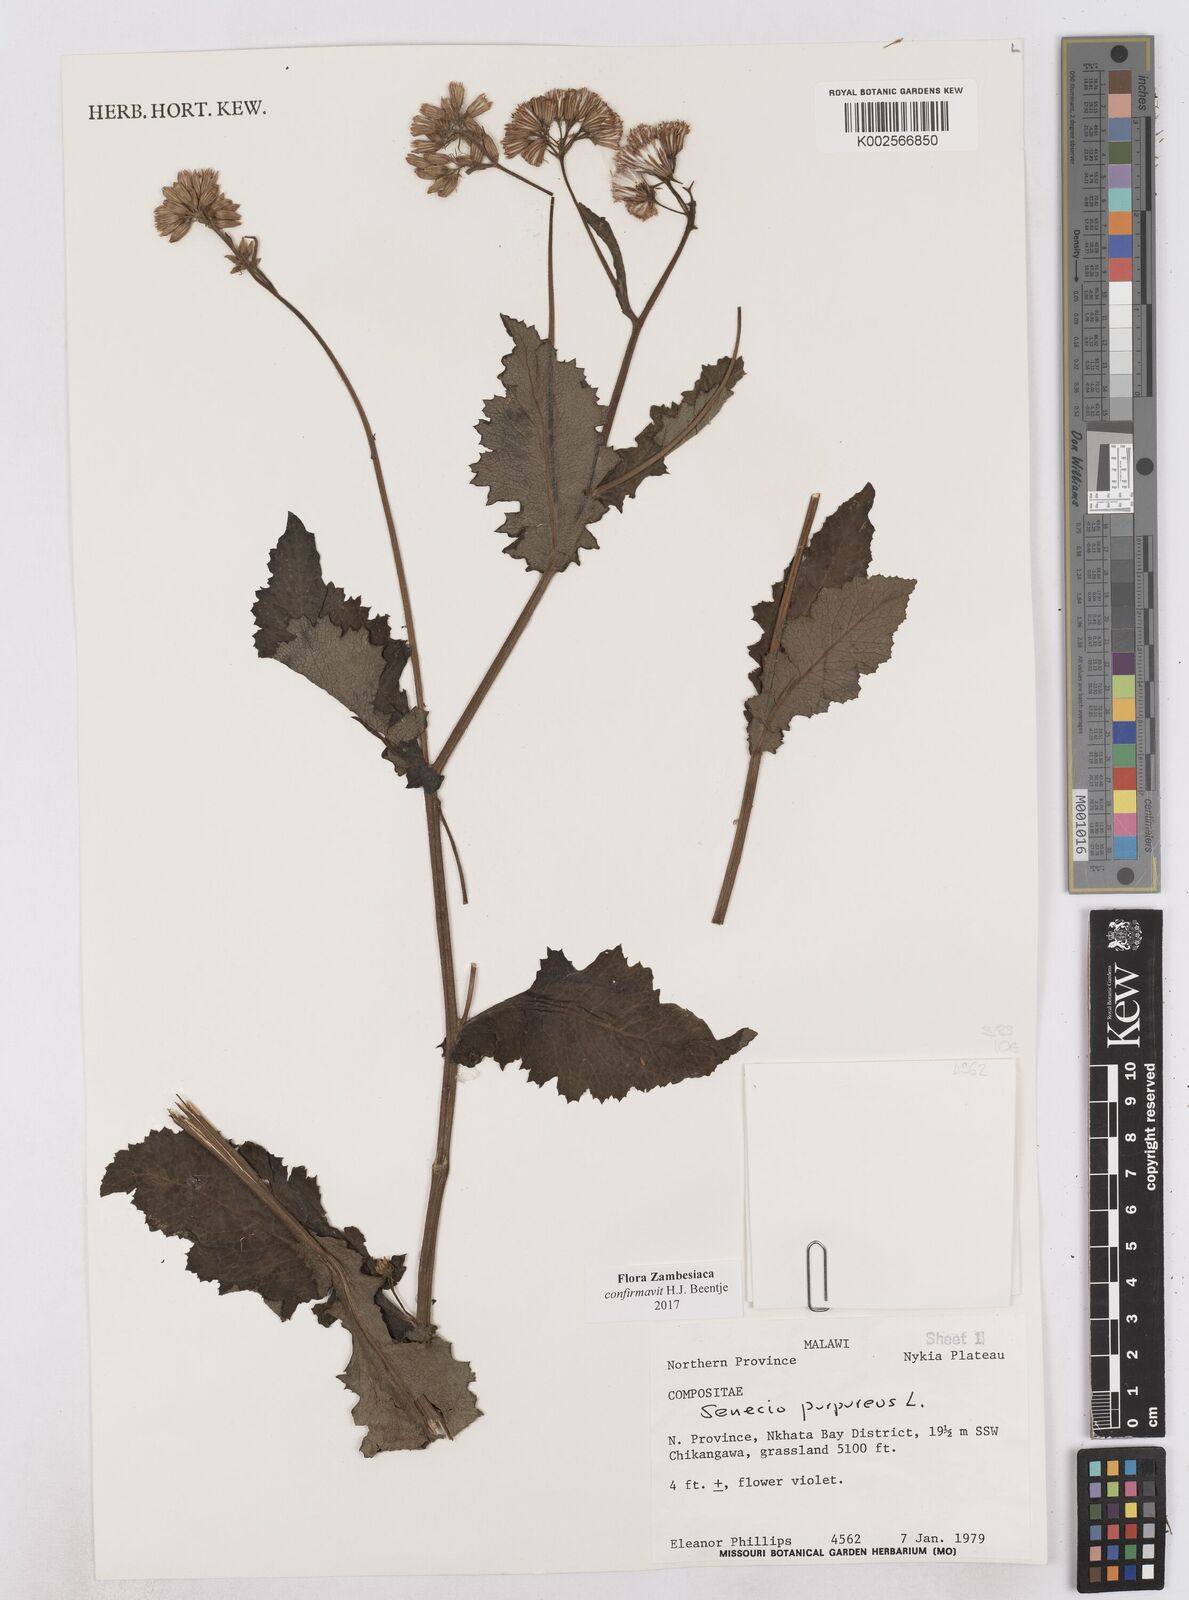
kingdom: Plantae
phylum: Tracheophyta
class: Magnoliopsida
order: Asterales
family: Asteraceae
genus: Senecio
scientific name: Senecio purpureus
